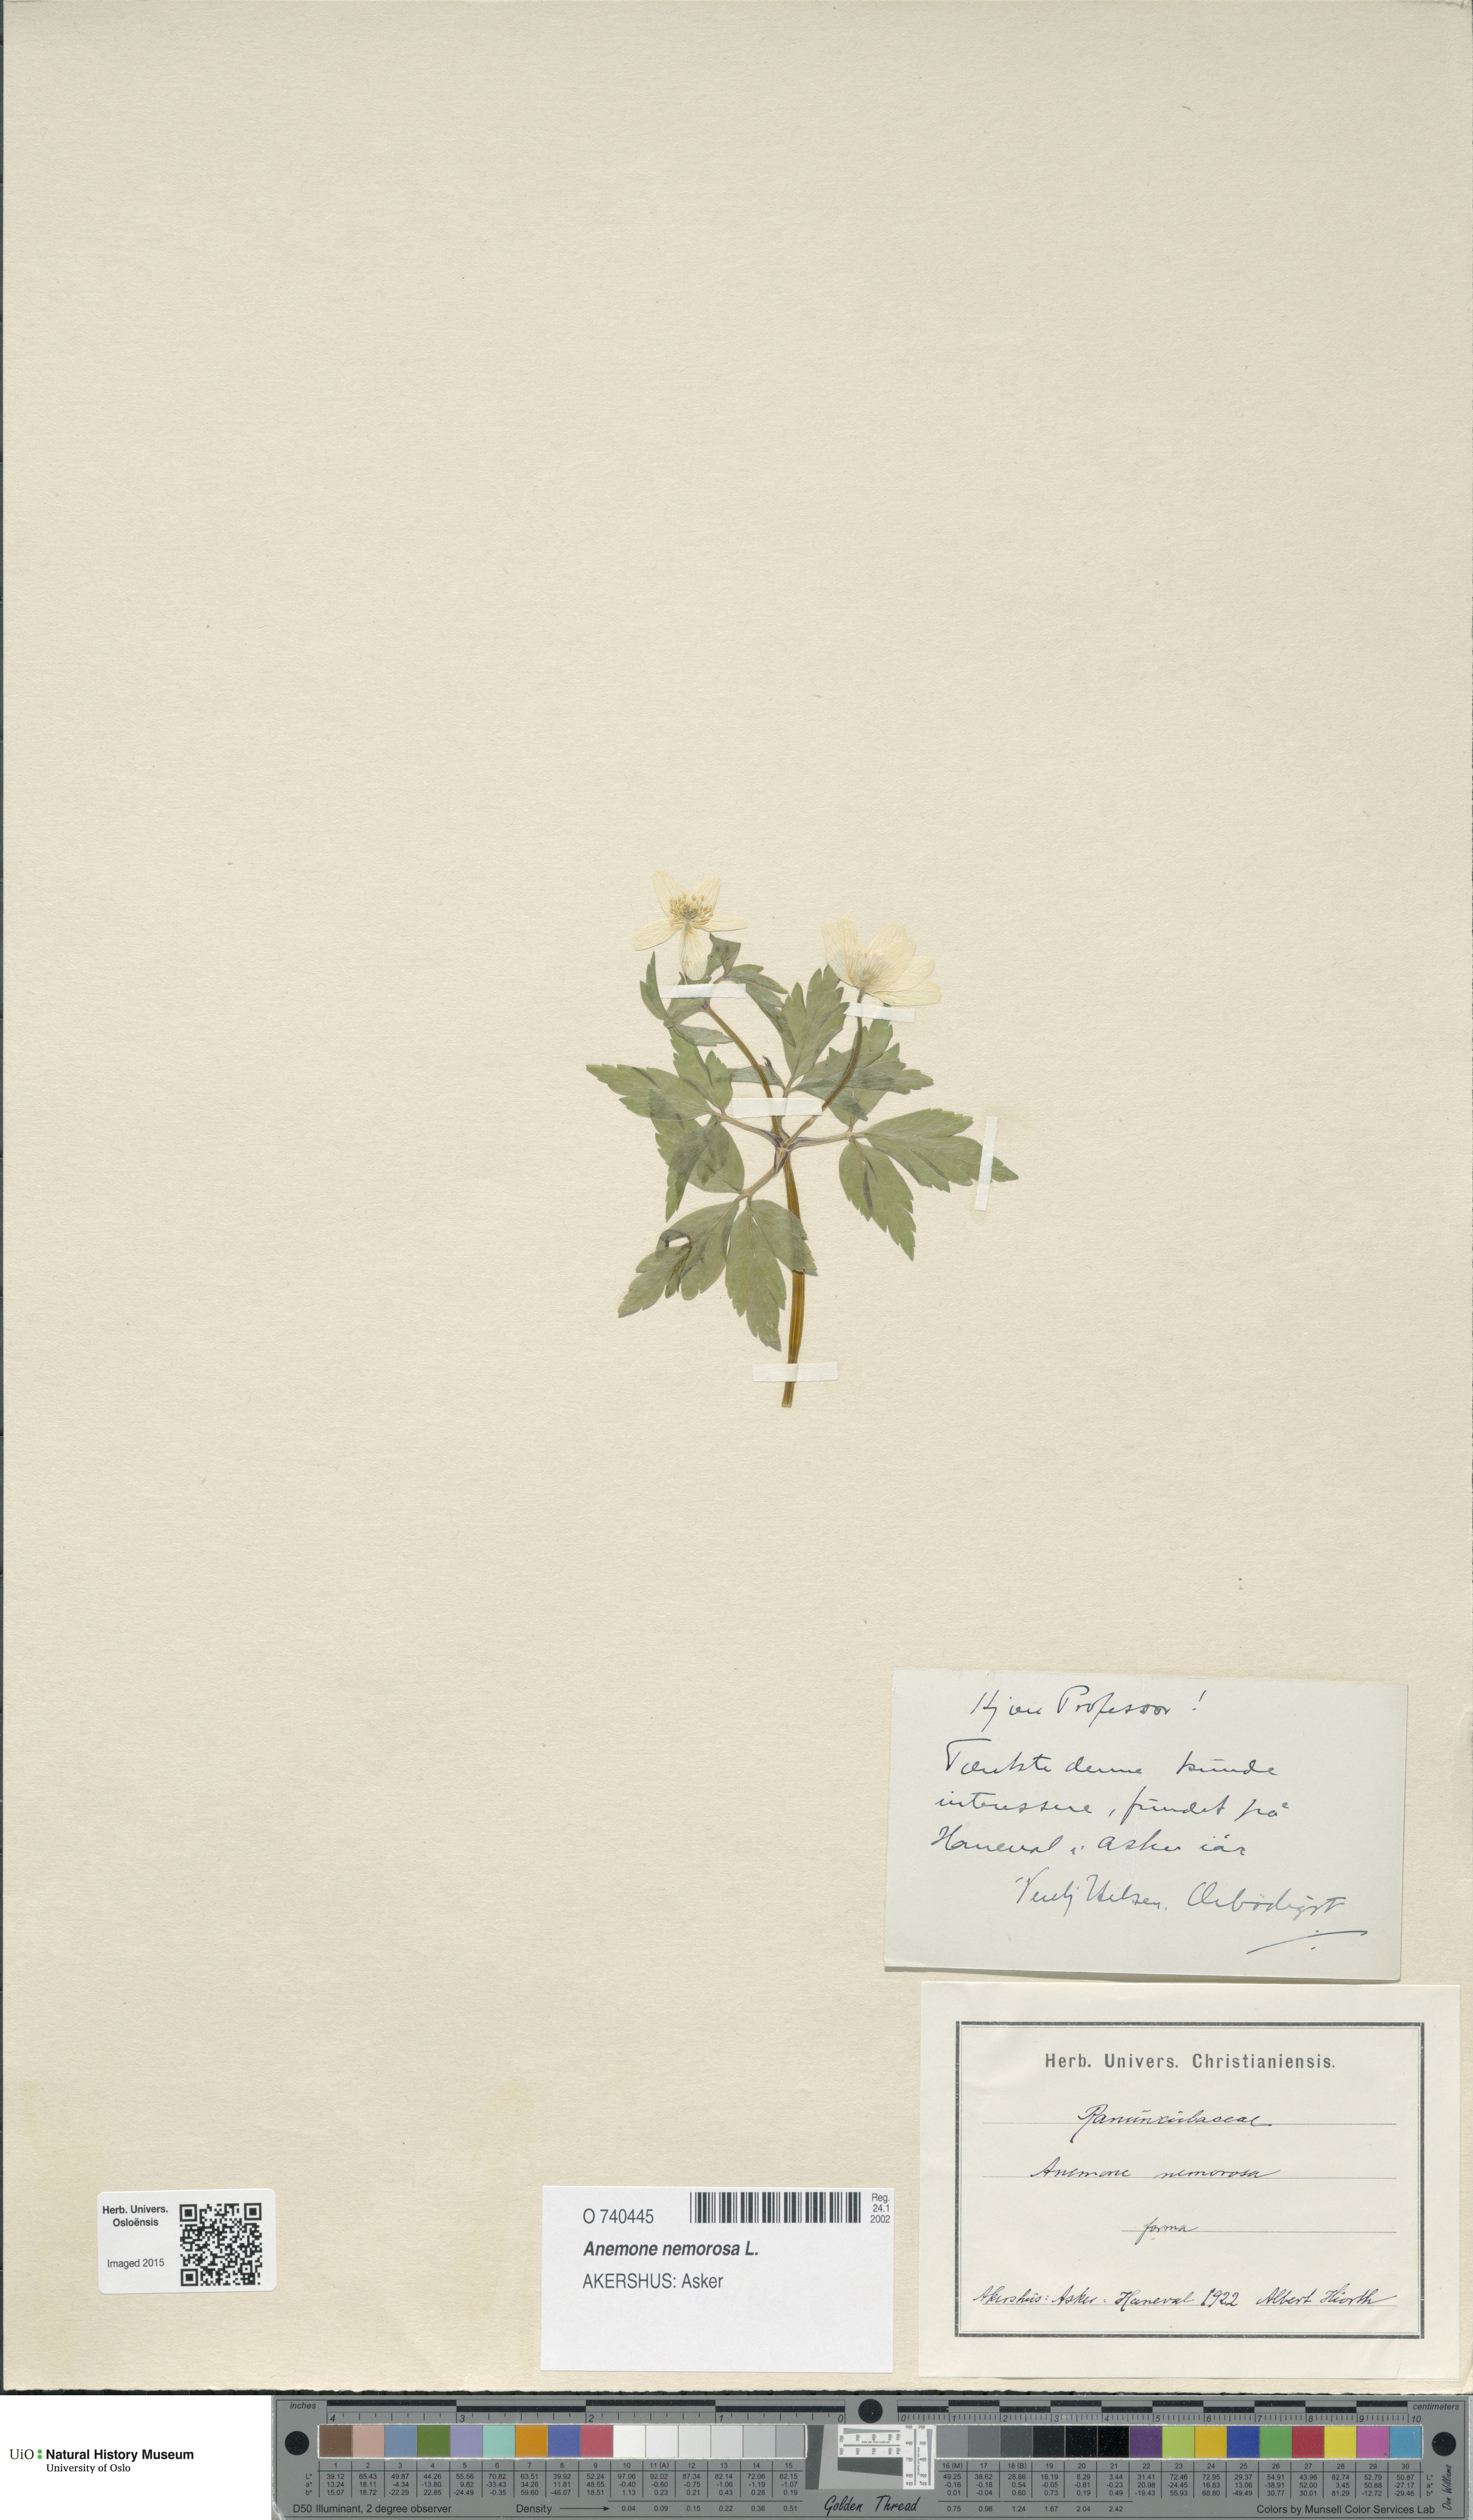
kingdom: Plantae
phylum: Tracheophyta
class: Magnoliopsida
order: Ranunculales
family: Ranunculaceae
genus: Anemone
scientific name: Anemone nemorosa
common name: Wood anemone
